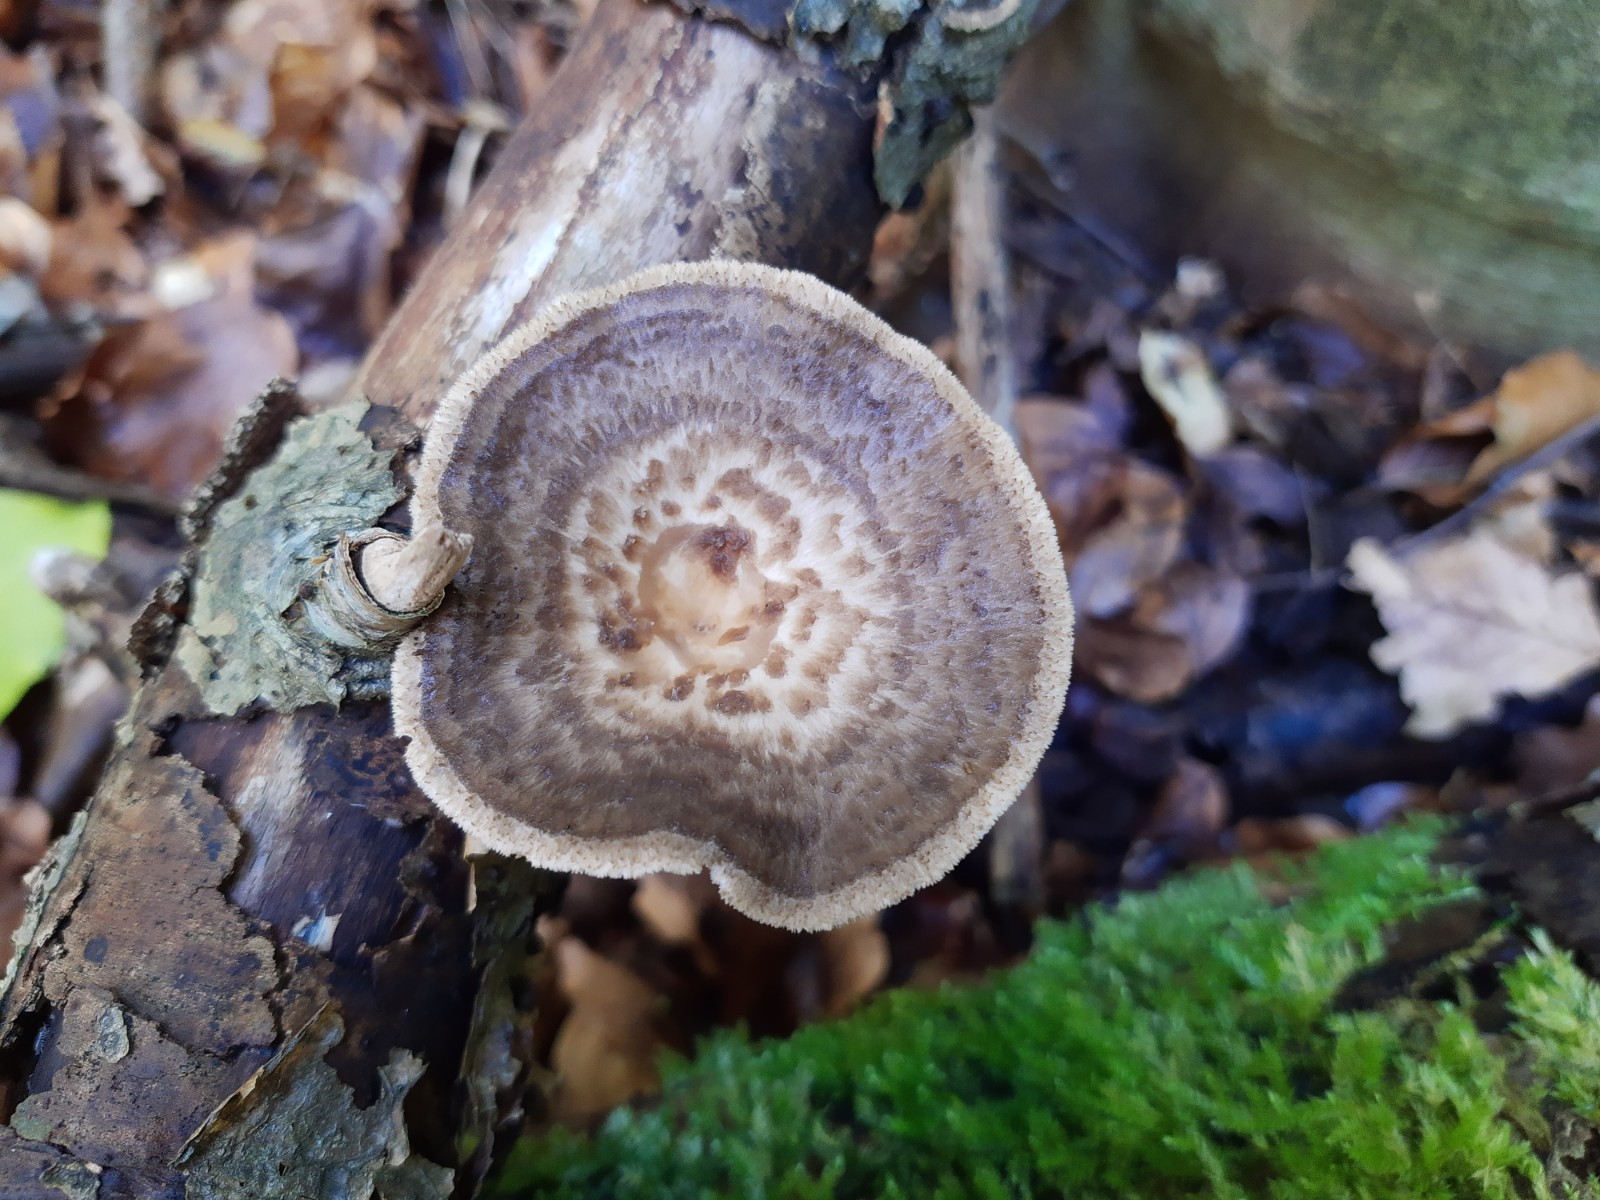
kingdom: Fungi
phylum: Basidiomycota
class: Agaricomycetes
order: Polyporales
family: Polyporaceae
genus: Polyporus
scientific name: Polyporus tuberaster
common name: knoldet stilkporesvamp
